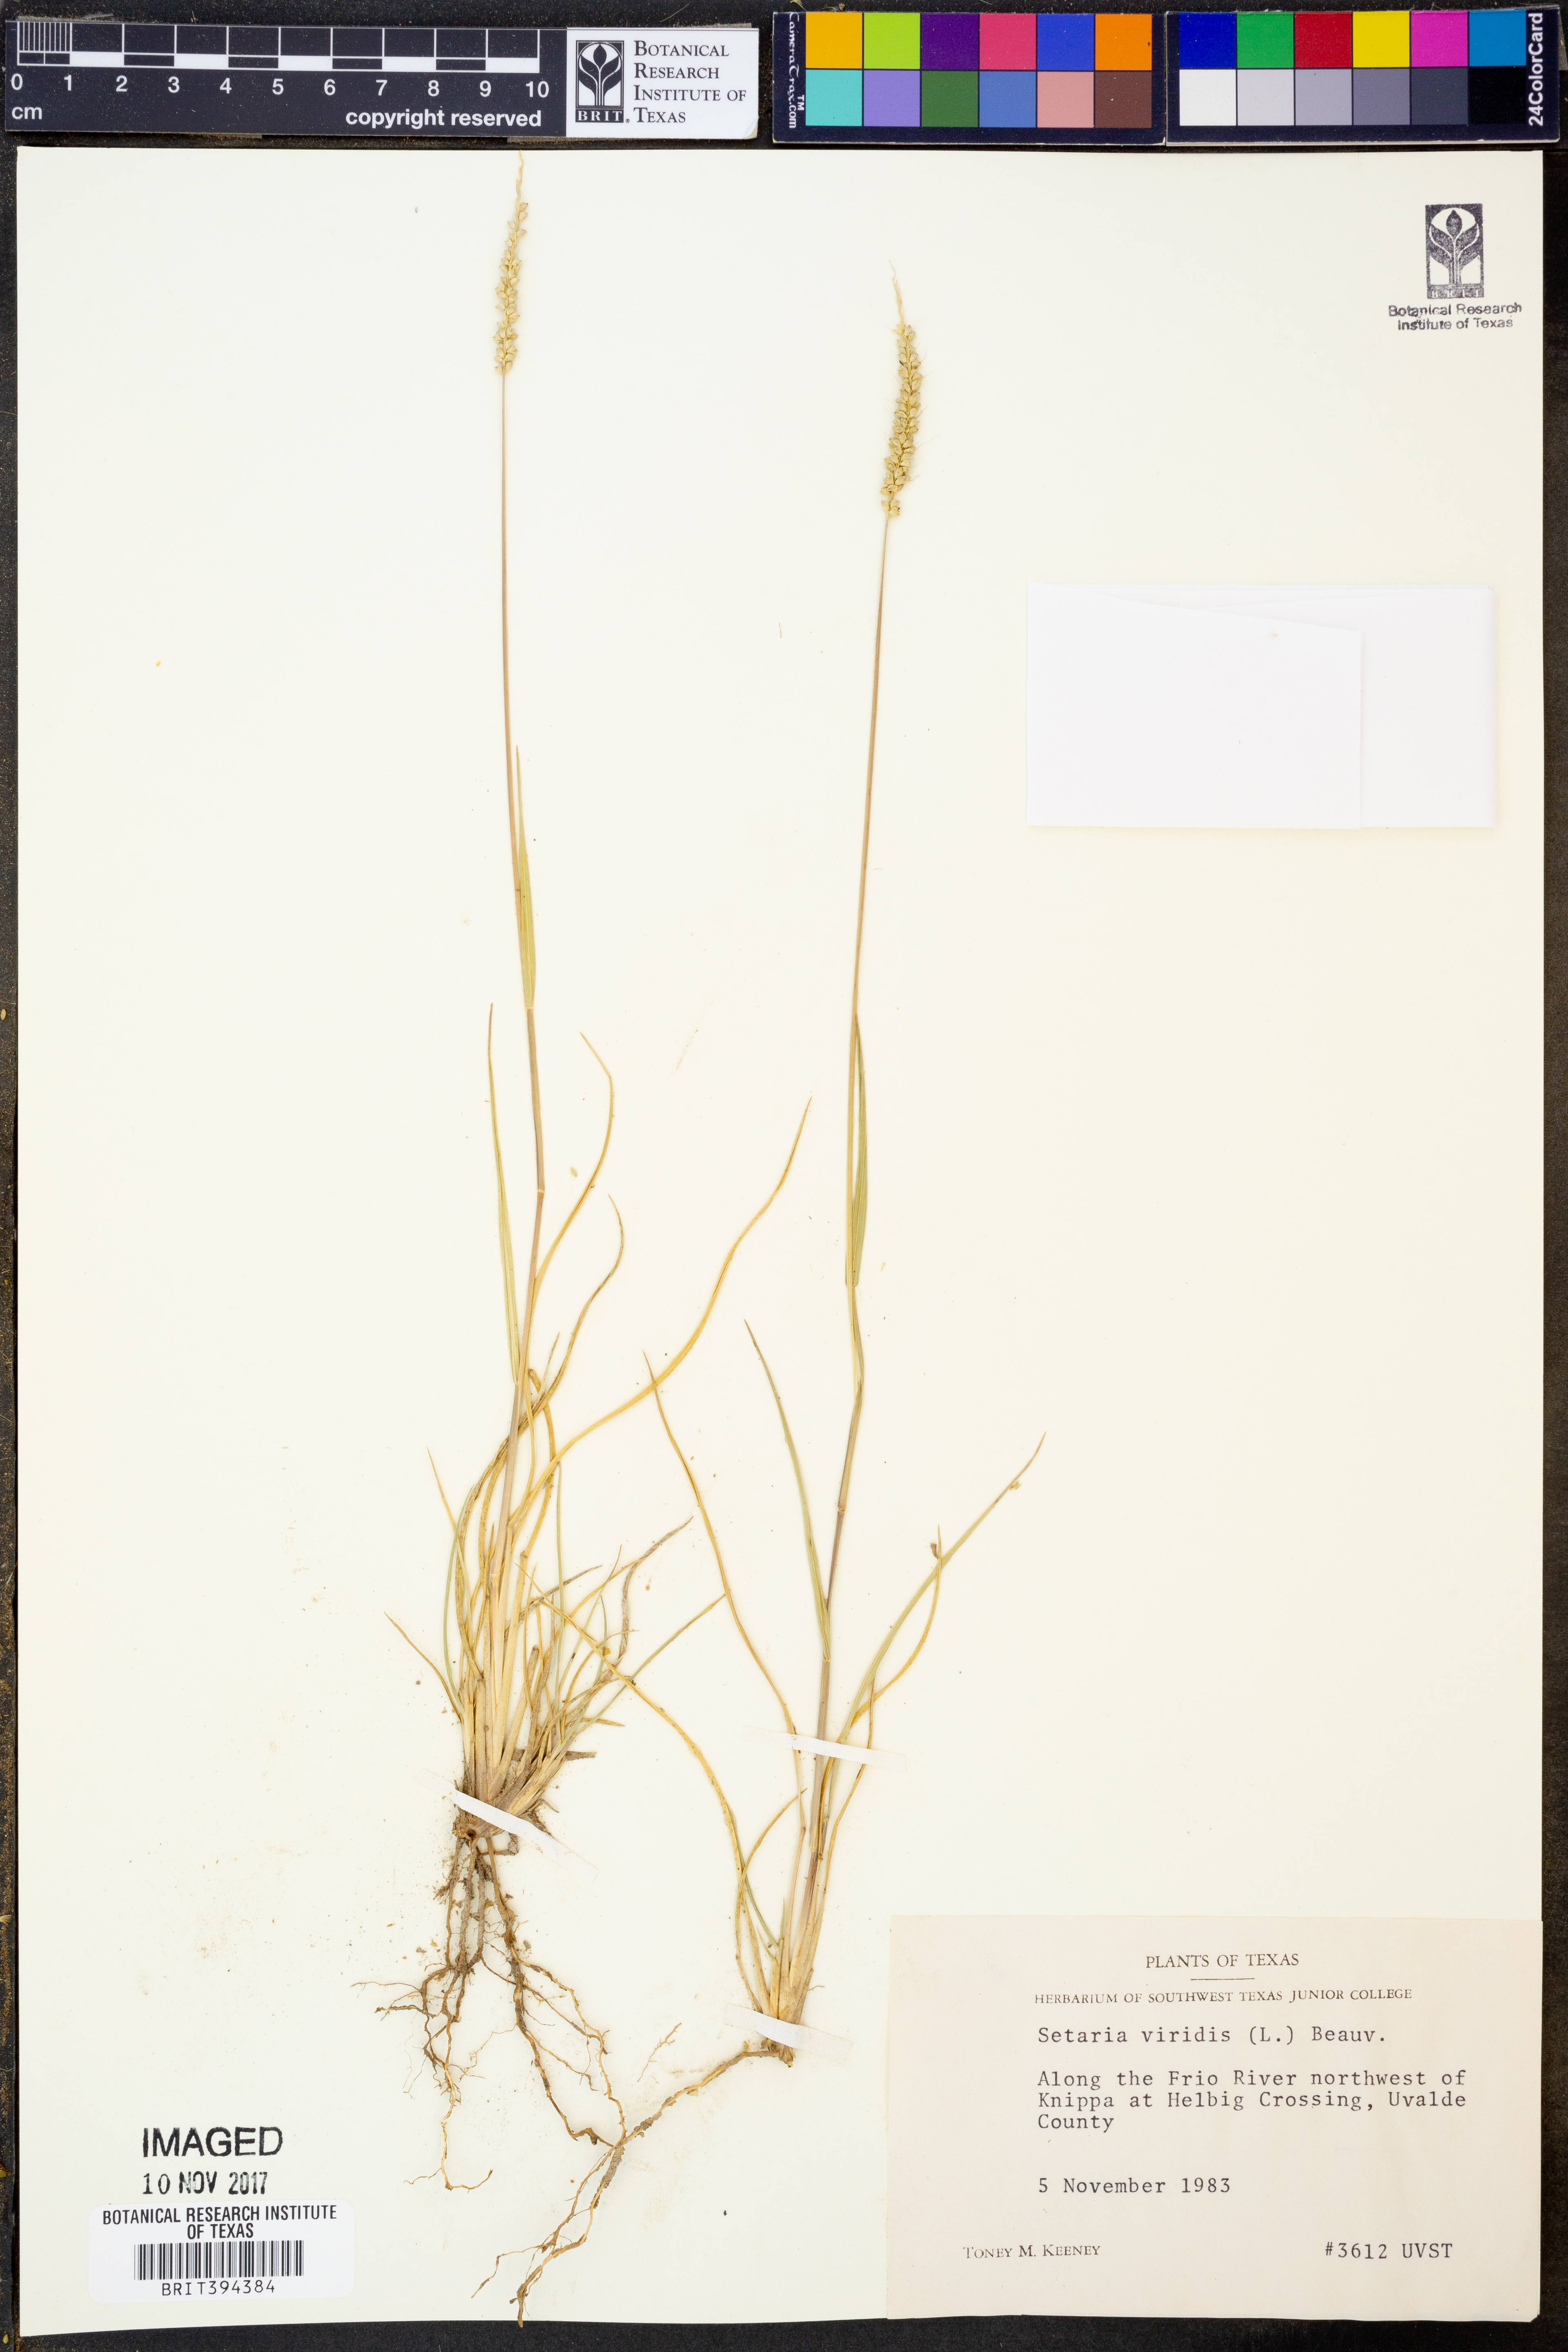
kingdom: Plantae
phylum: Tracheophyta
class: Liliopsida
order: Poales
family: Poaceae
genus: Setaria
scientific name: Setaria viridis
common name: Green bristlegrass
